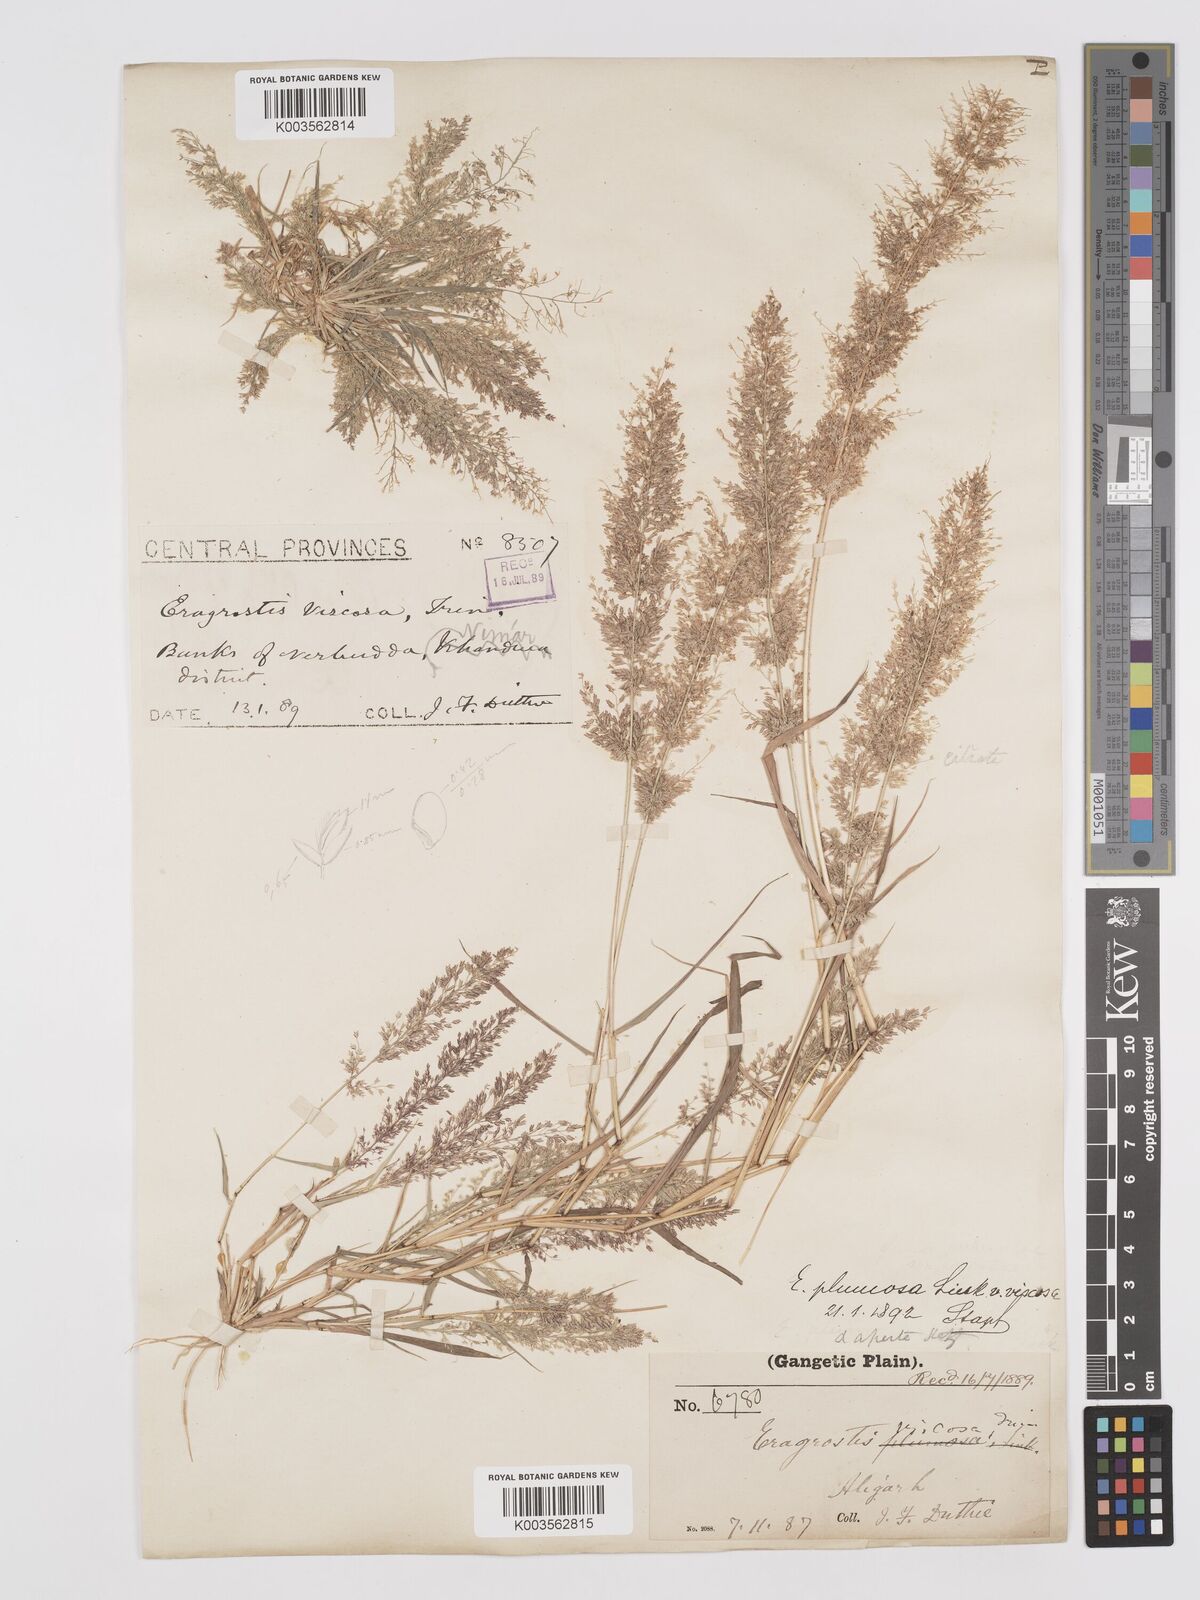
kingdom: Plantae
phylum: Tracheophyta
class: Liliopsida
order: Poales
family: Poaceae
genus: Eragrostis
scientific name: Eragrostis viscosa
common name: Sticky love grass
